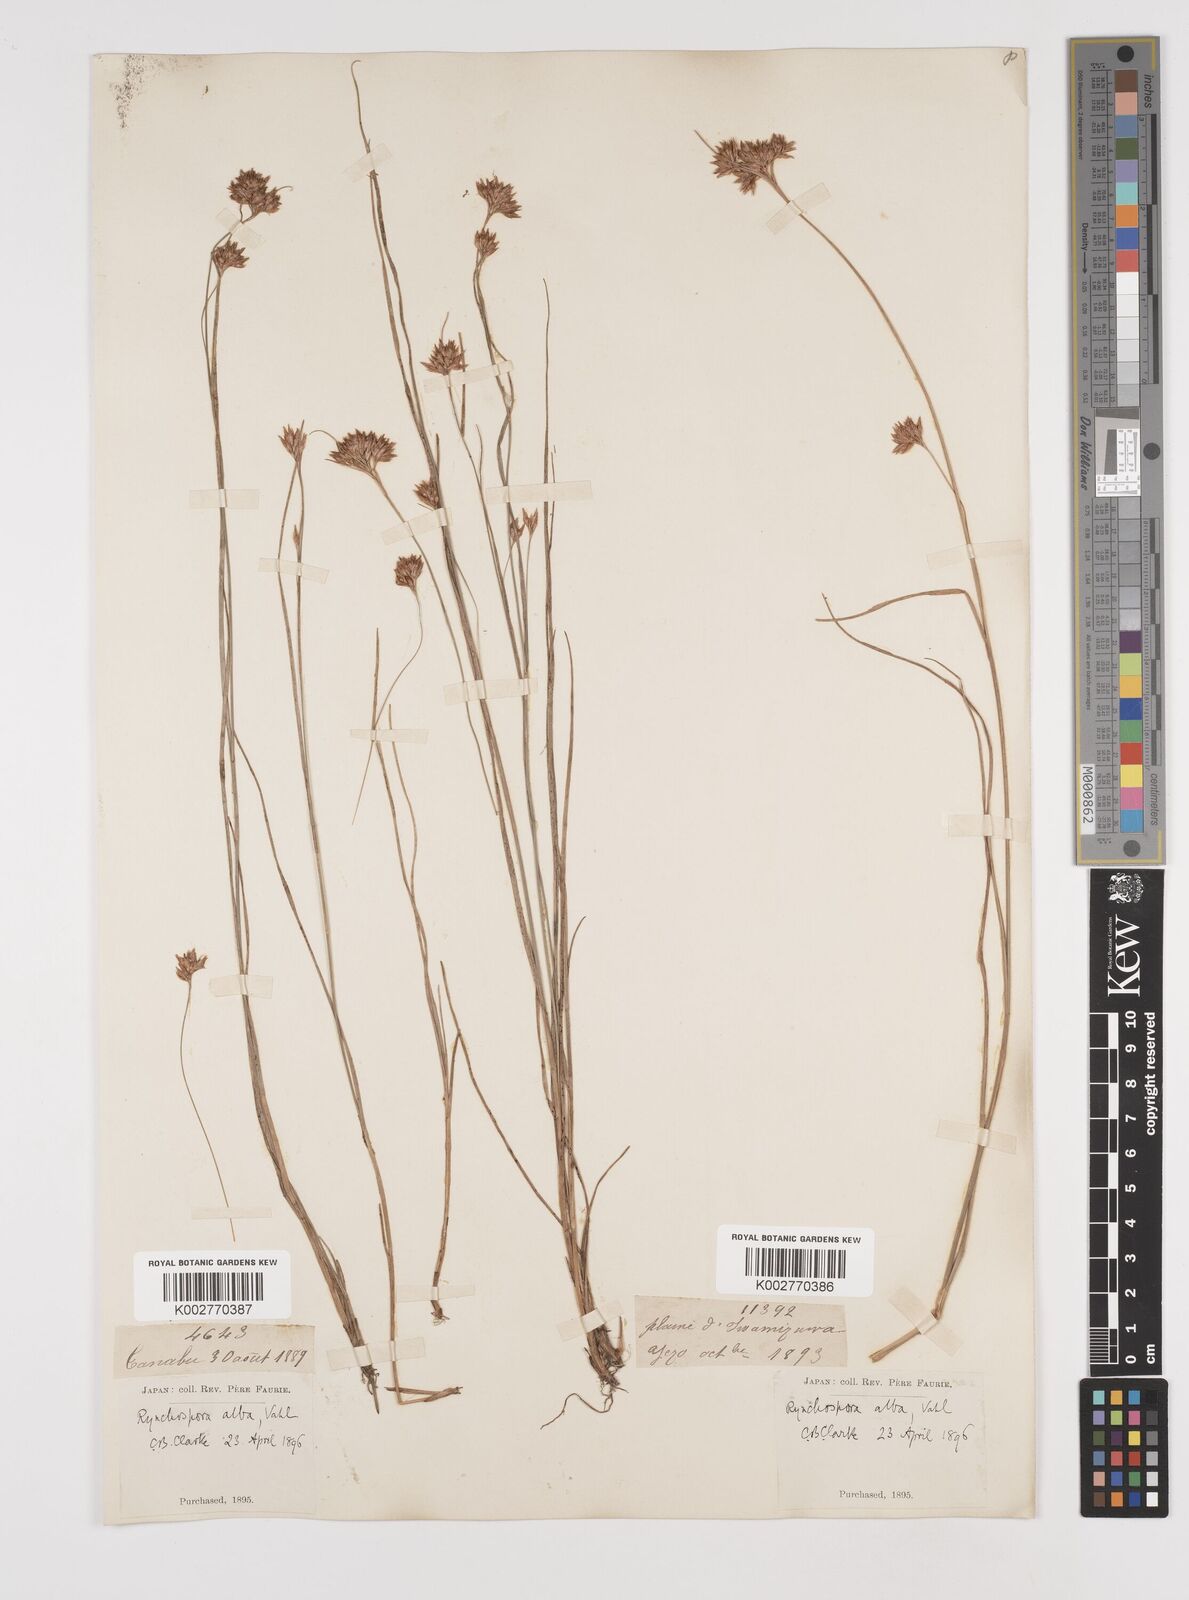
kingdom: Plantae
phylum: Tracheophyta
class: Liliopsida
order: Poales
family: Cyperaceae
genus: Rhynchospora
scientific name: Rhynchospora alba
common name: White beak-sedge
